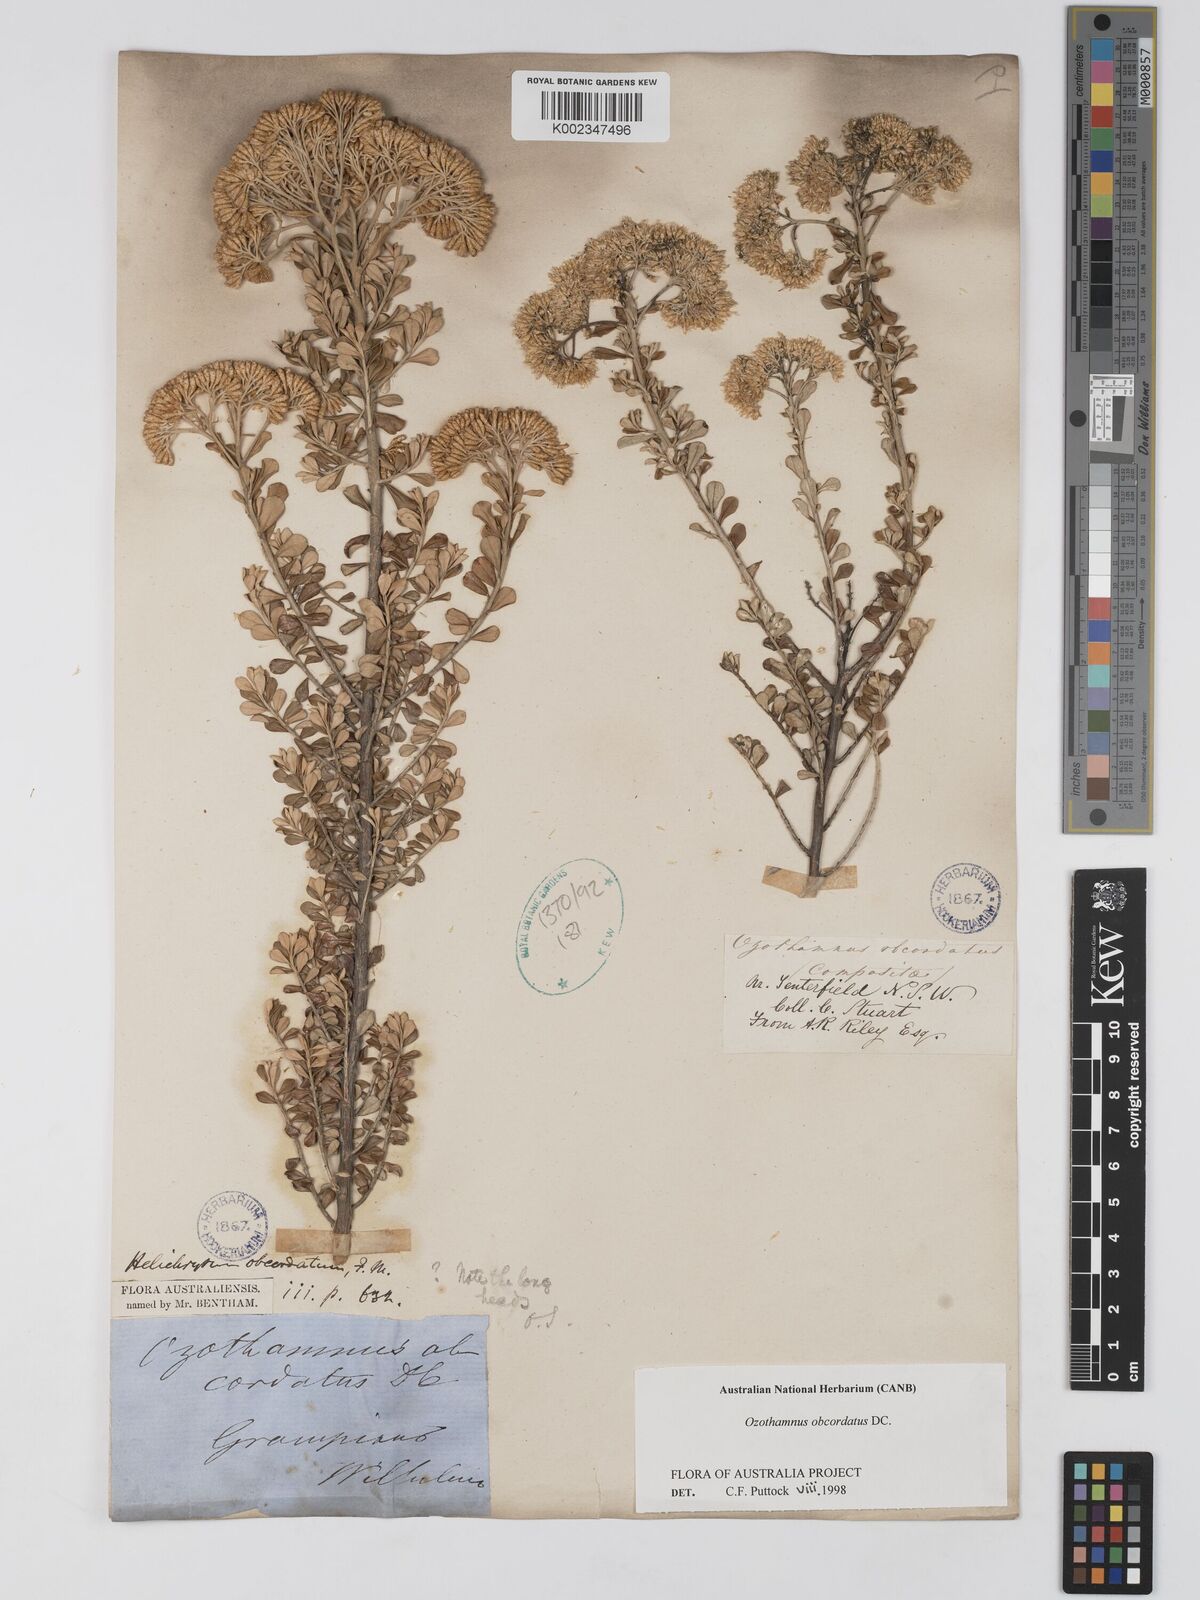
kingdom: Plantae
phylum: Tracheophyta
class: Magnoliopsida
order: Asterales
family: Asteraceae
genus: Ozothamnus
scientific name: Ozothamnus obcordatus
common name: Grey everlasting
